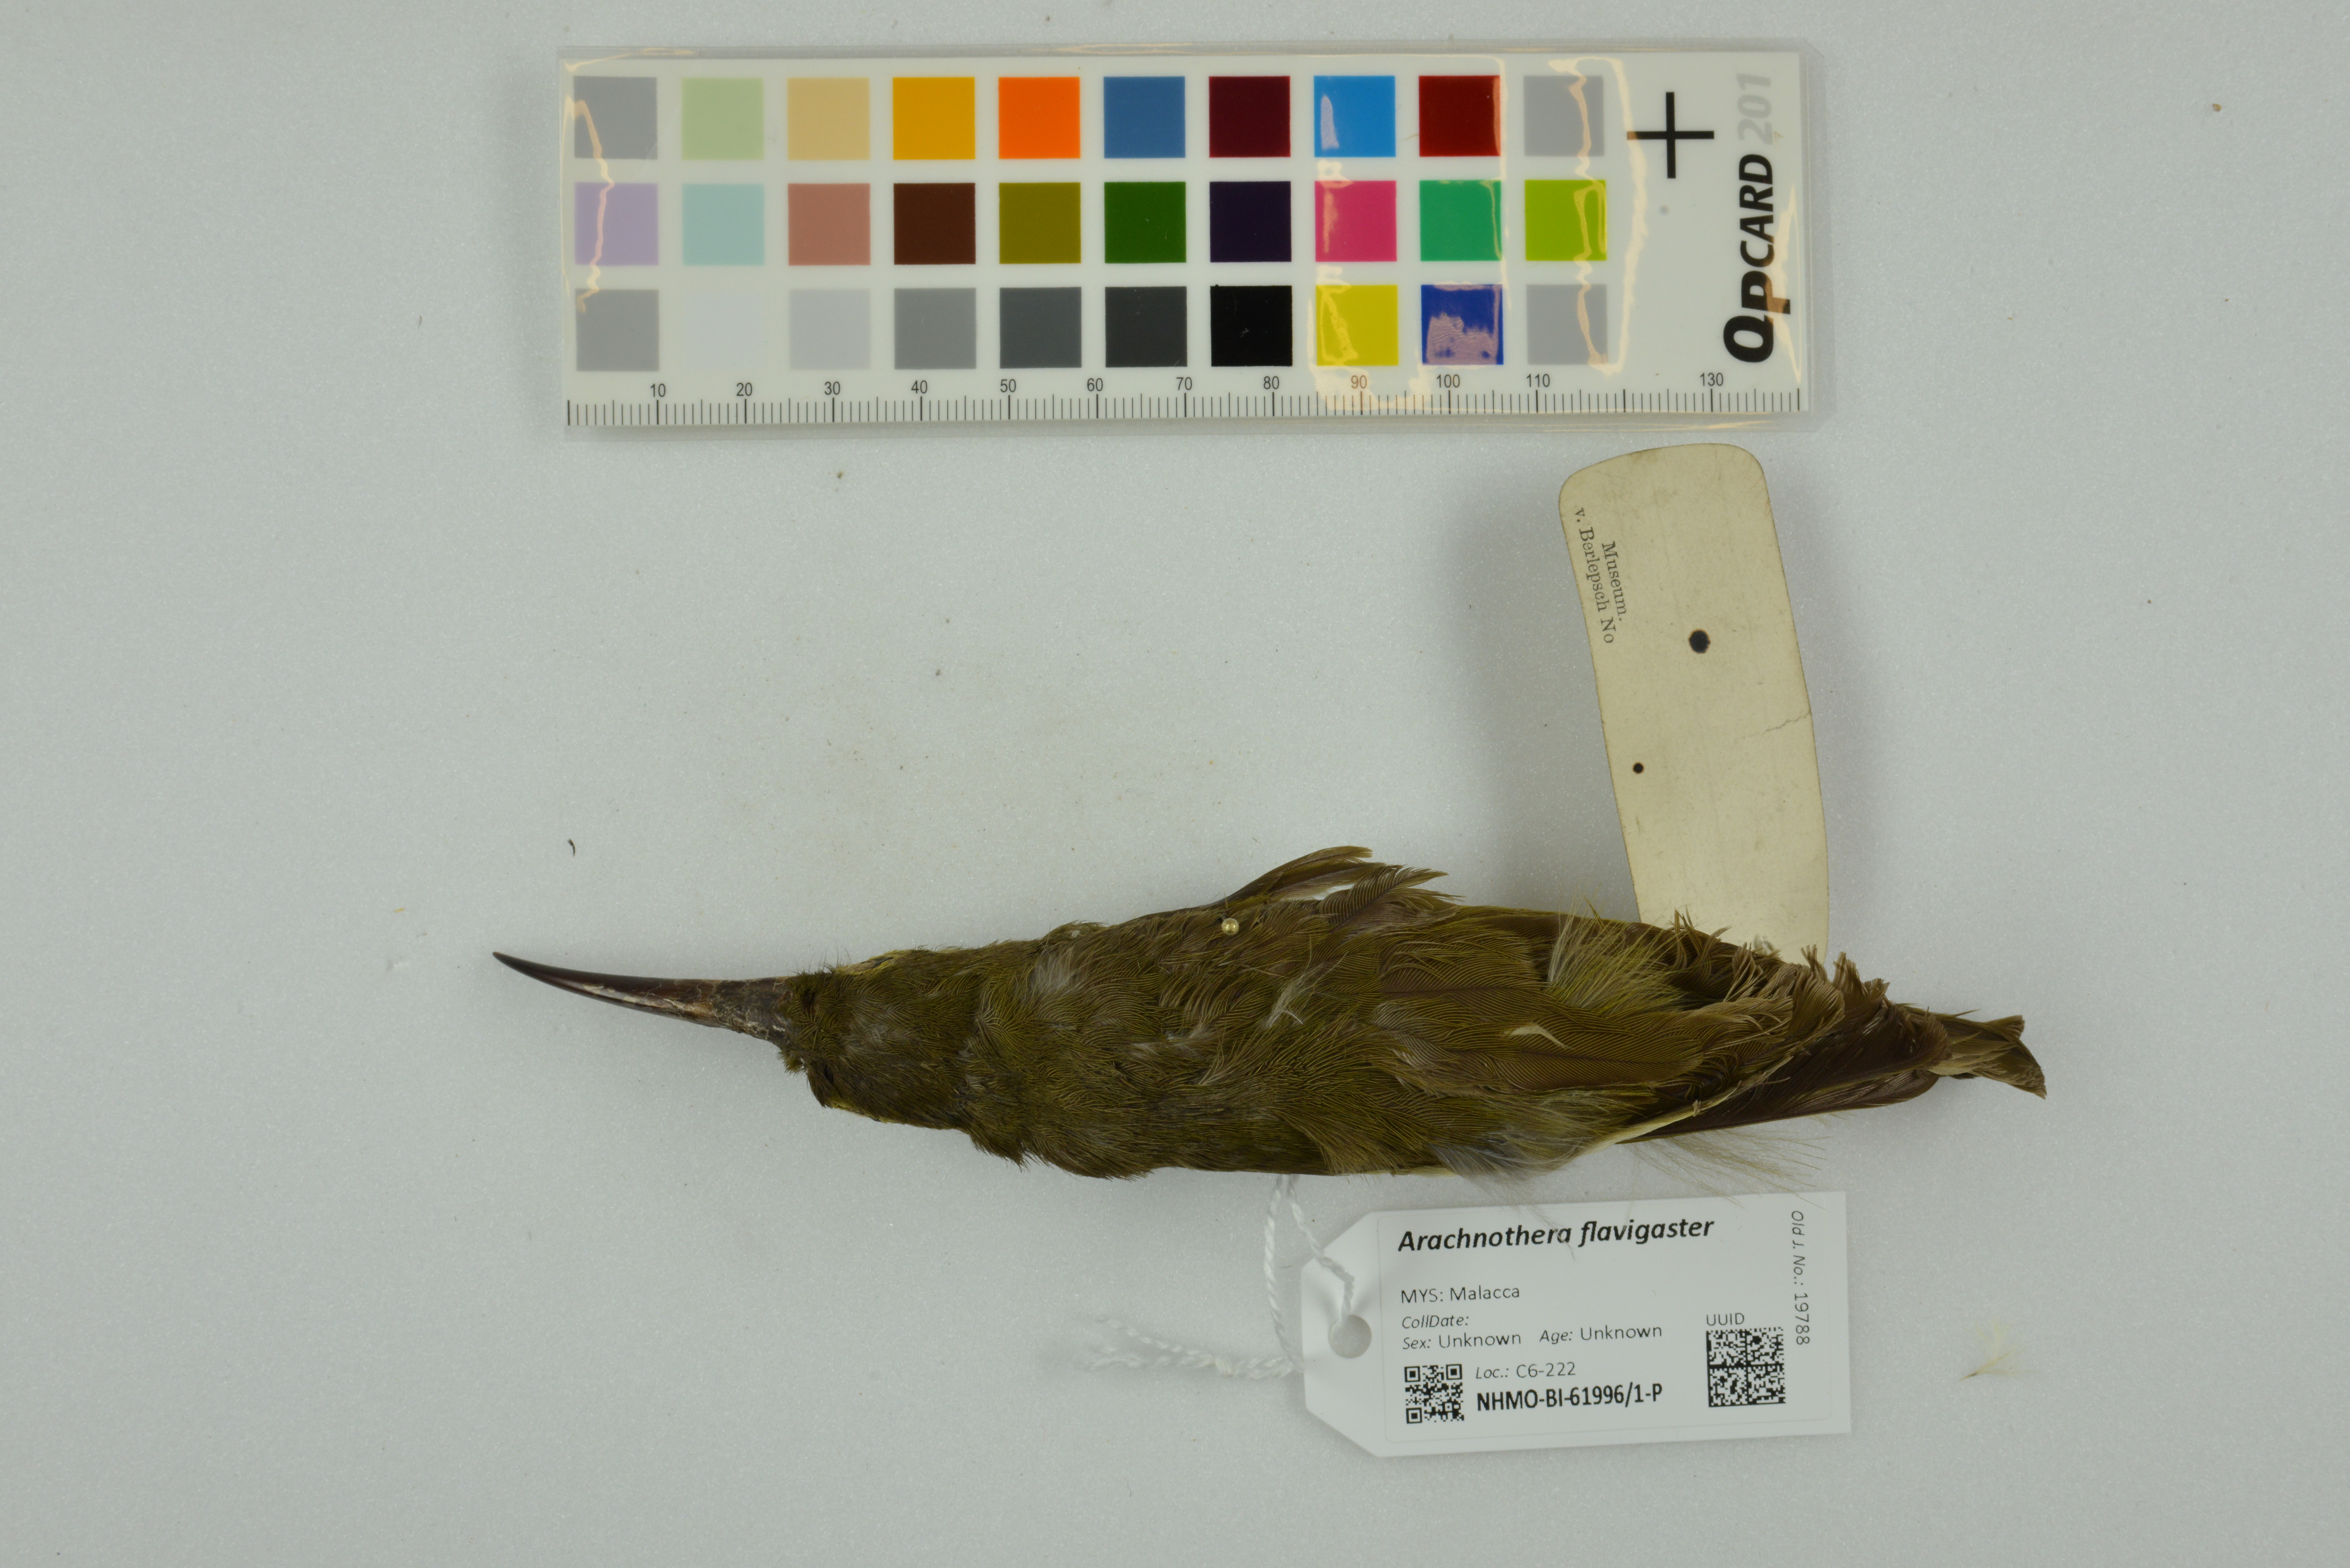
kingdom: Animalia
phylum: Chordata
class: Aves
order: Passeriformes
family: Nectariniidae
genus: Arachnothera
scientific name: Arachnothera flavigaster
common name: Spectacled spiderhunter
